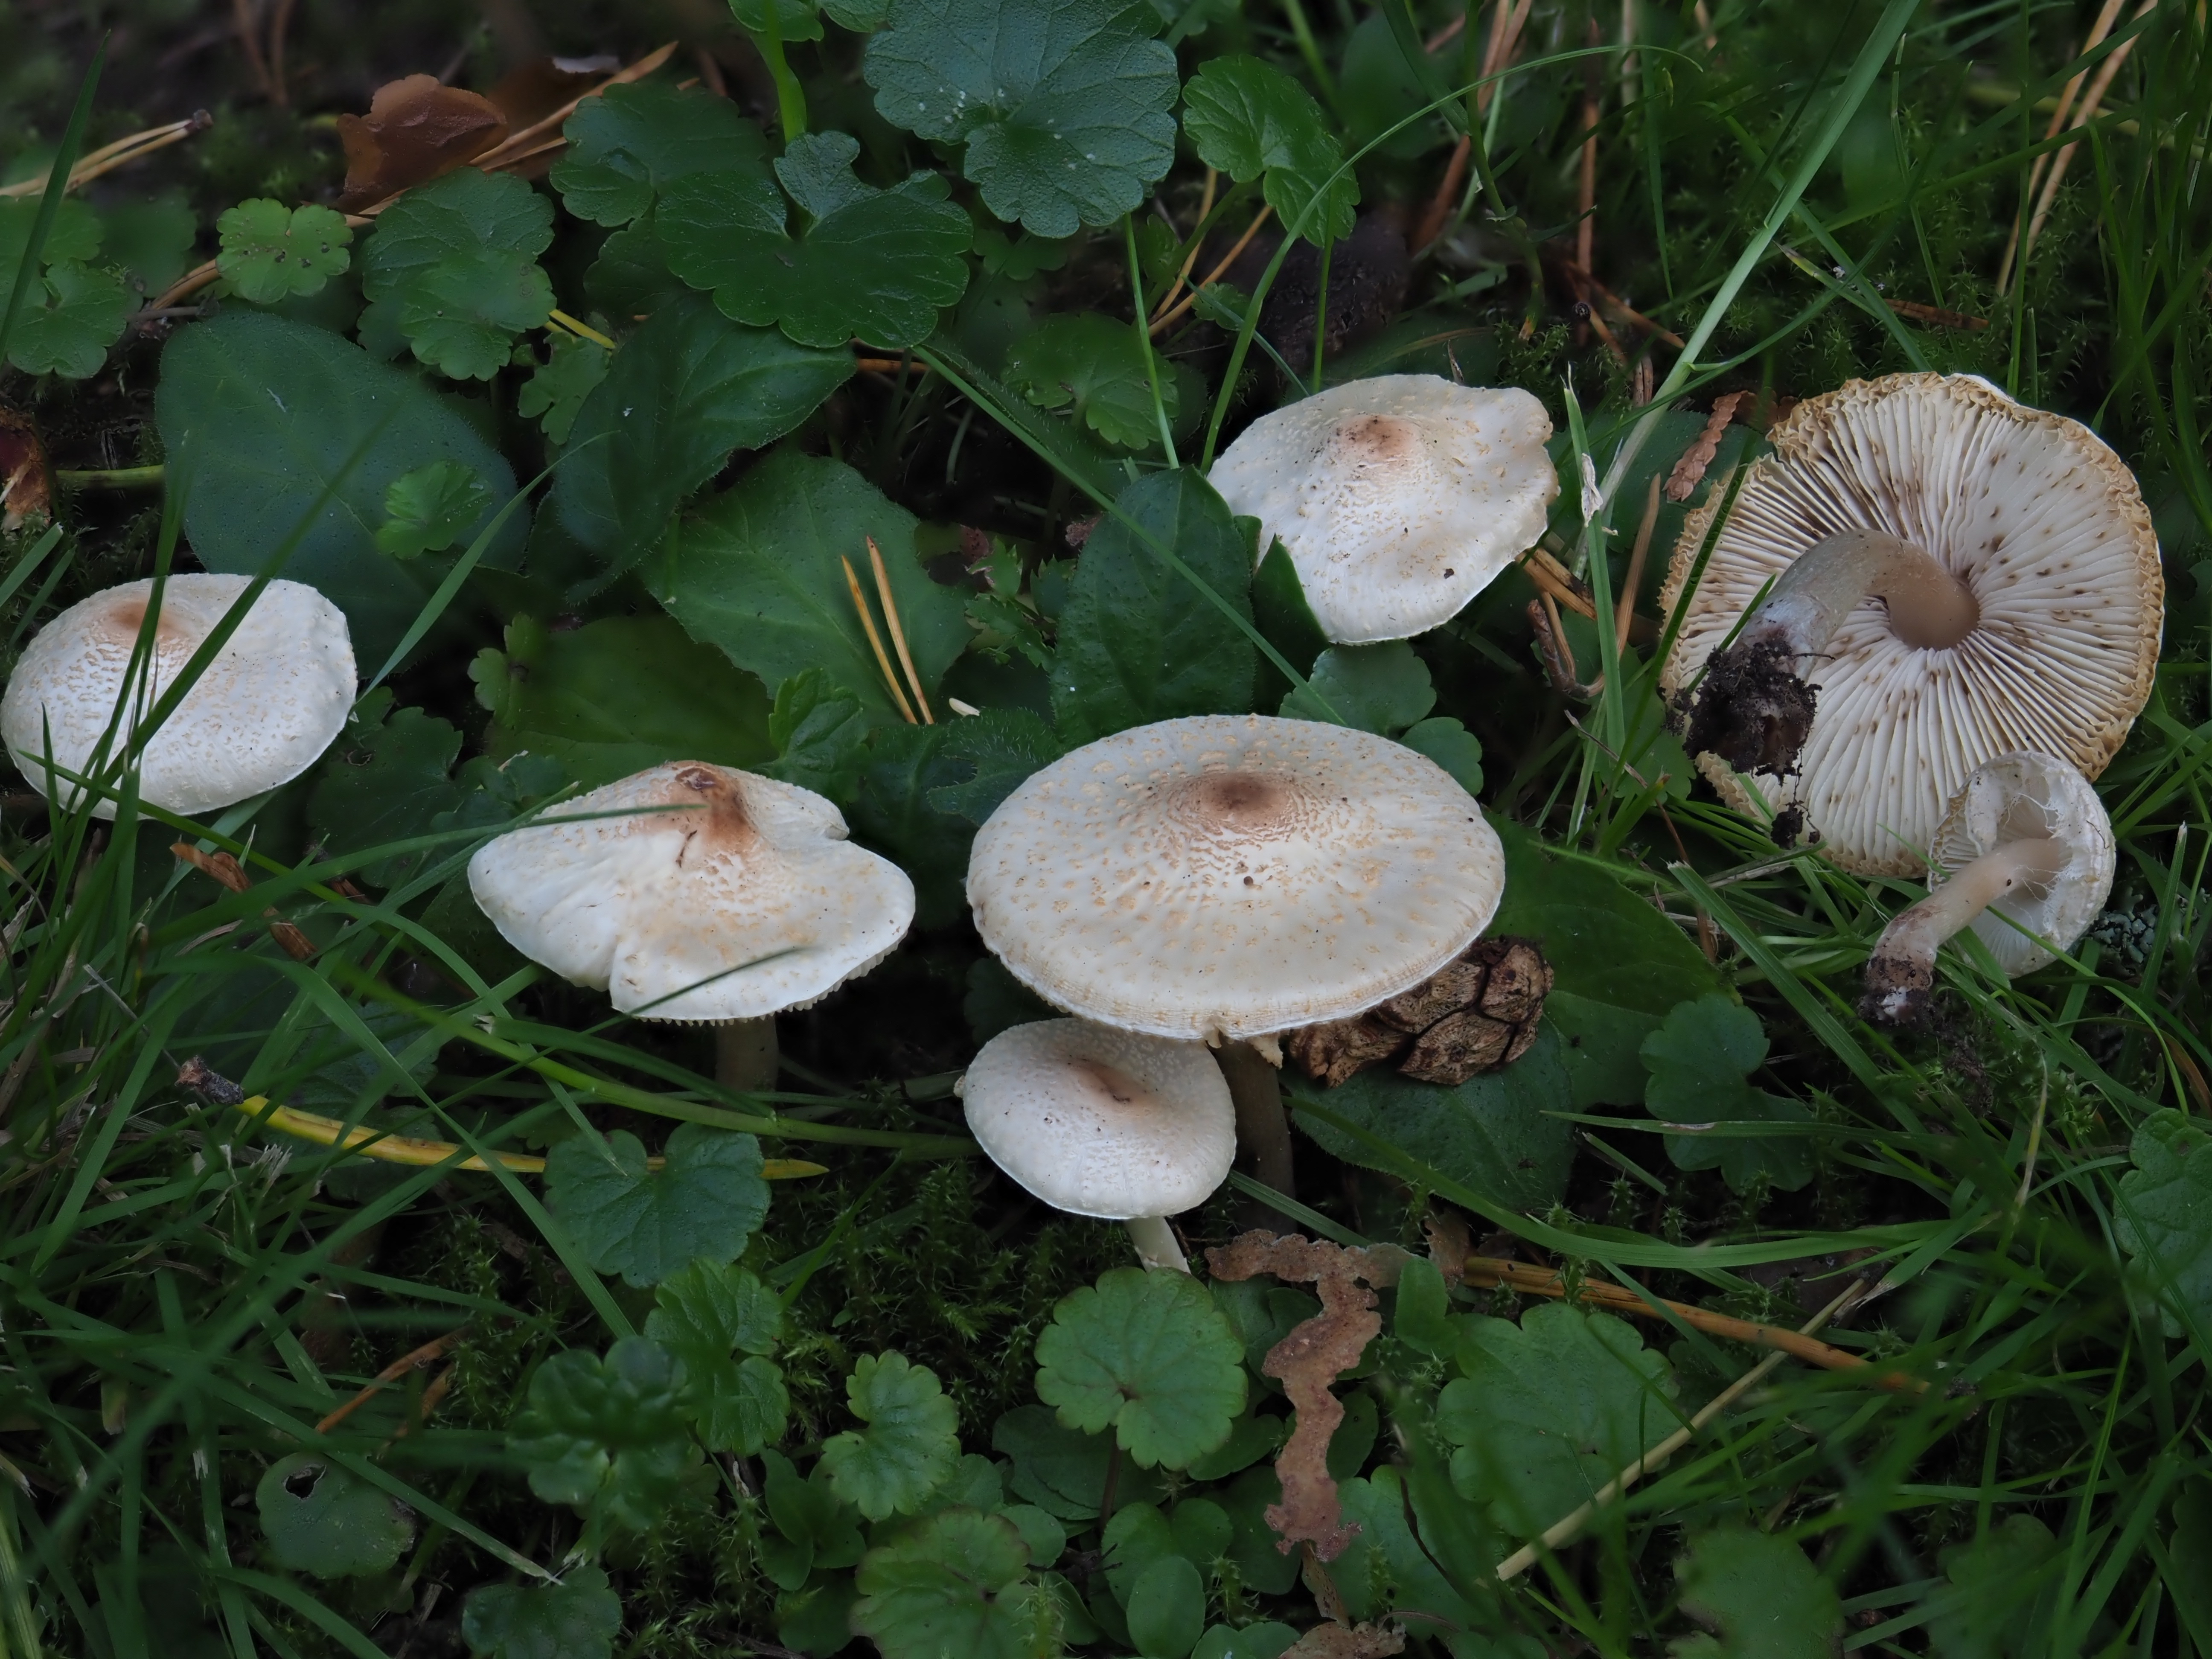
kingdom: Fungi
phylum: Basidiomycota
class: Agaricomycetes
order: Agaricales
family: Agaricaceae
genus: Lepiota
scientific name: Lepiota cristata
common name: Stinking dapperling
